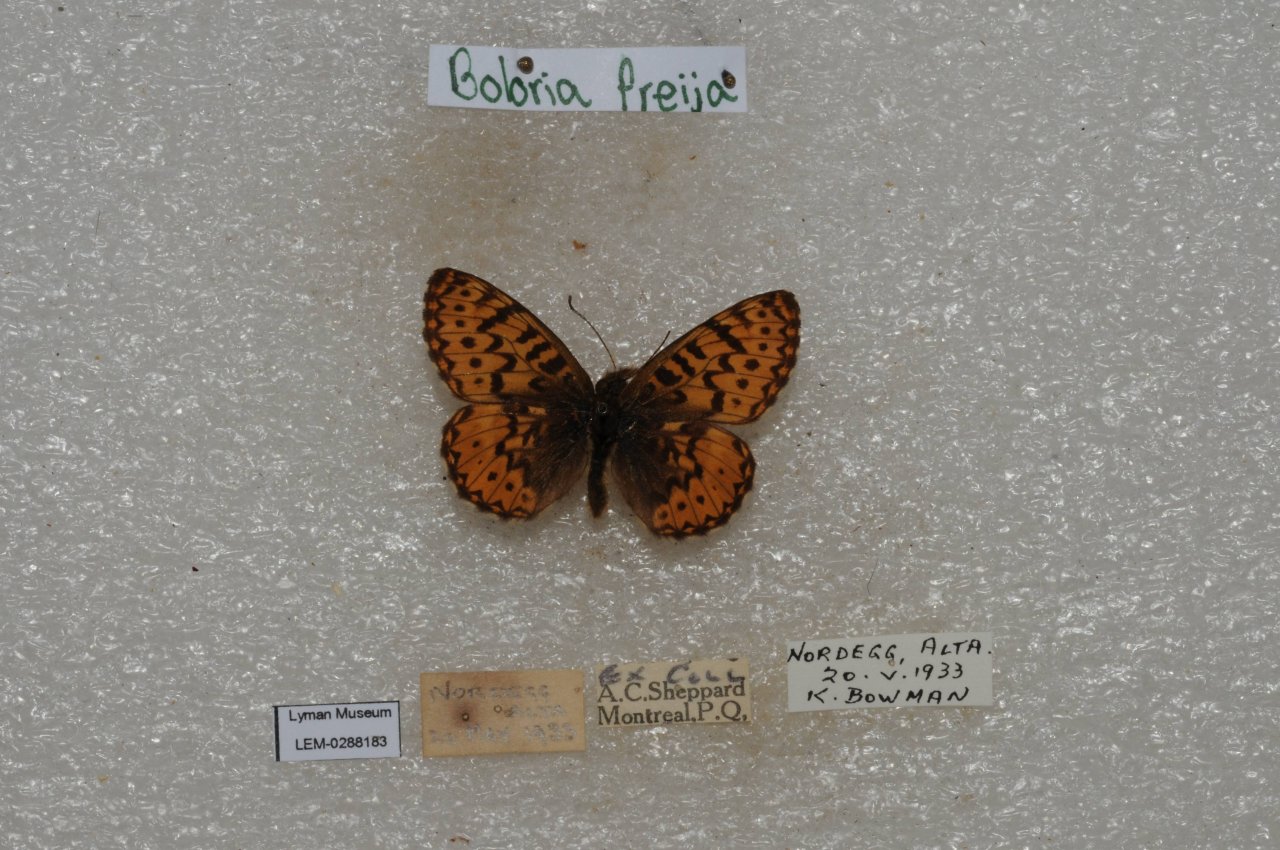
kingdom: Animalia
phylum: Arthropoda
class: Insecta
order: Lepidoptera
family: Nymphalidae
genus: Boloria
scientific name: Boloria freija
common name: Freija Fritillary
